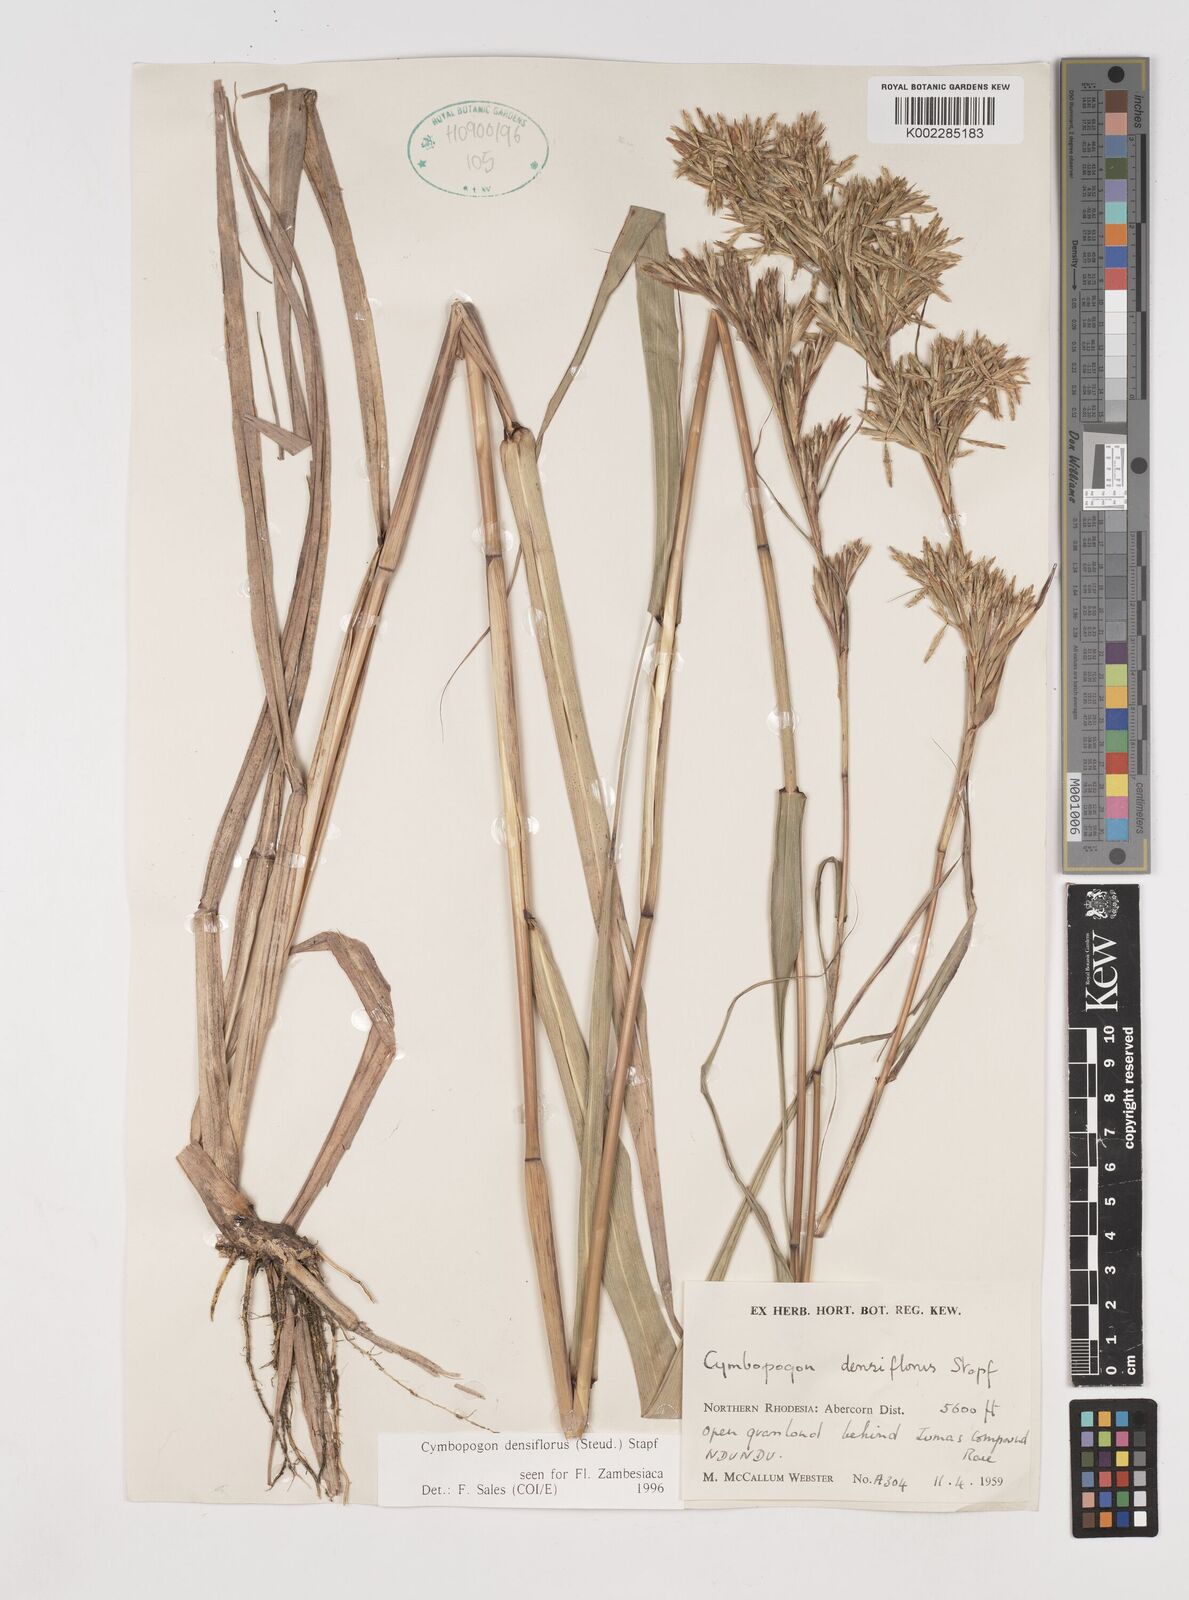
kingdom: Plantae
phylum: Tracheophyta
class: Liliopsida
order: Poales
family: Poaceae
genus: Cymbopogon
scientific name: Cymbopogon densiflorus
